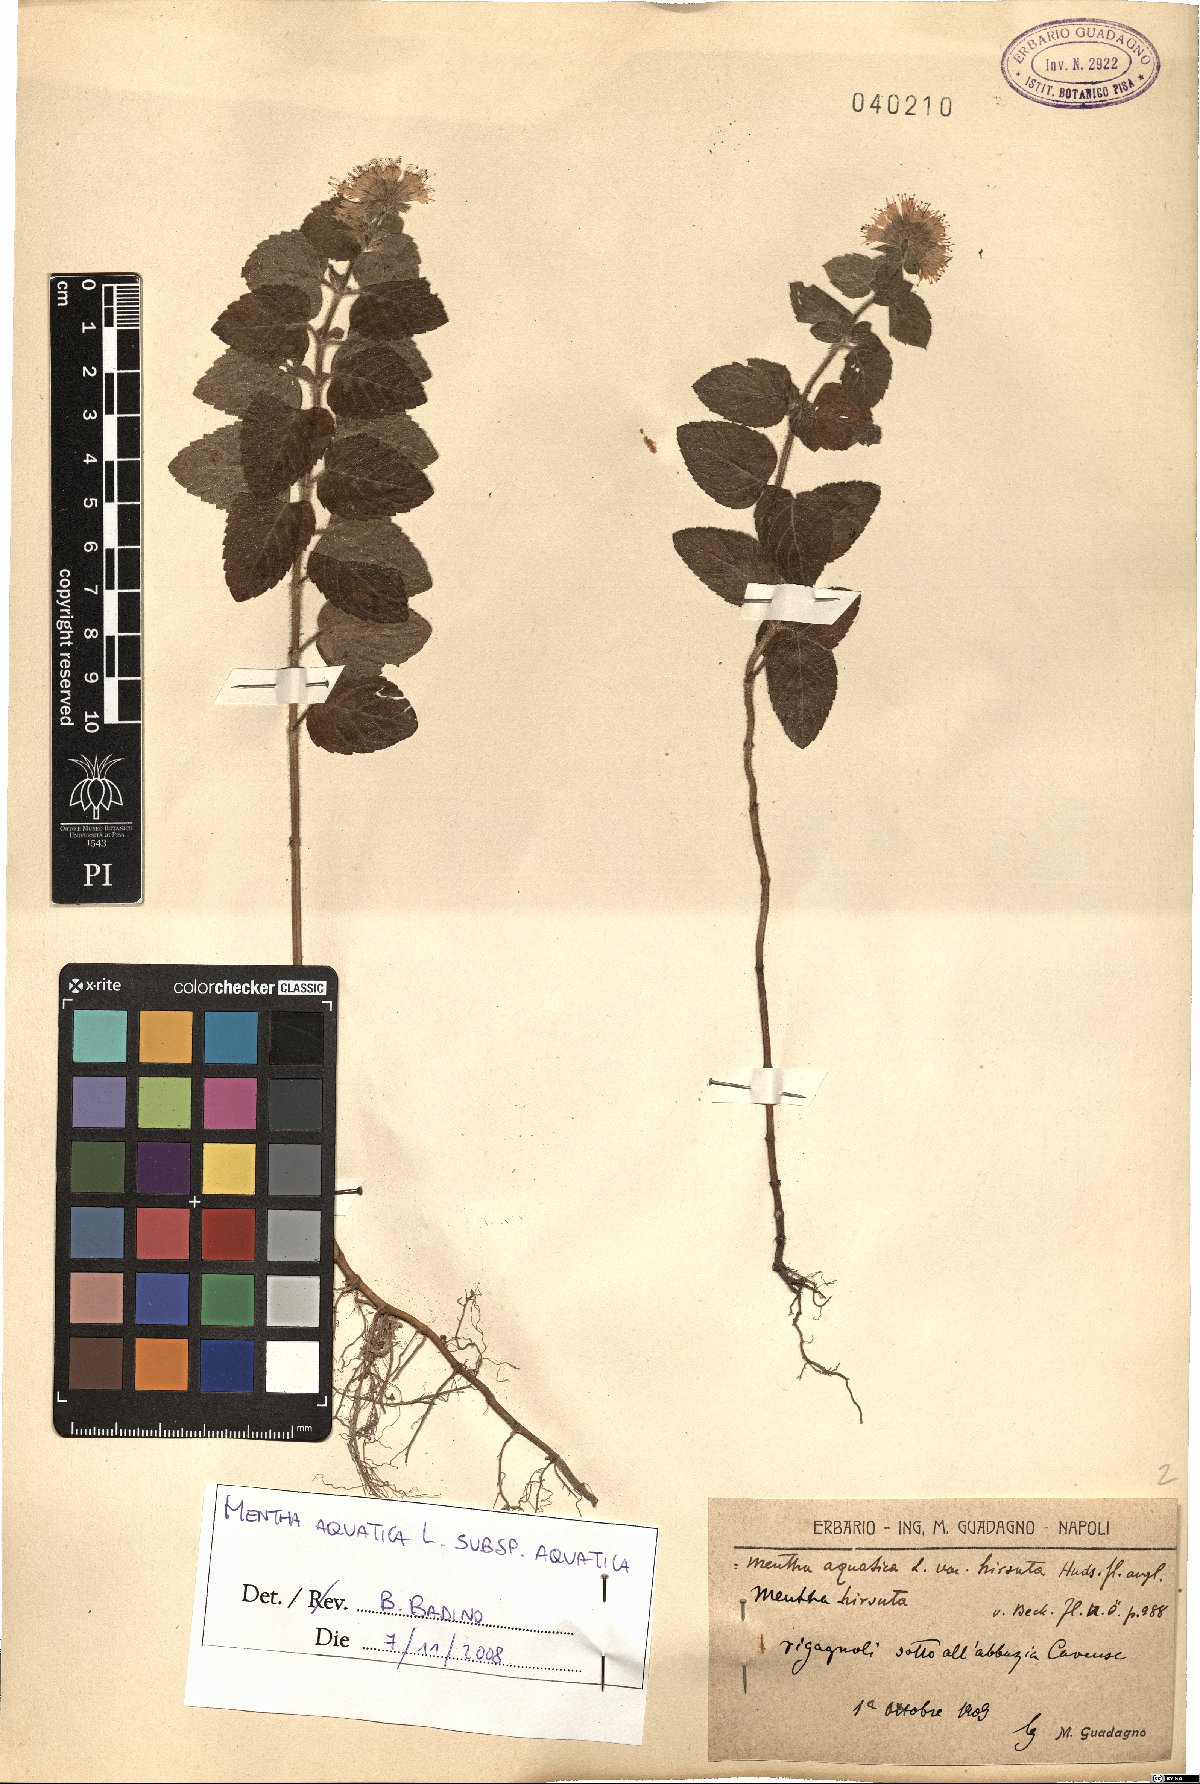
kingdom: Plantae
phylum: Tracheophyta
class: Magnoliopsida
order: Lamiales
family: Lamiaceae
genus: Mentha
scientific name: Mentha aquatica
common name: Water mint
